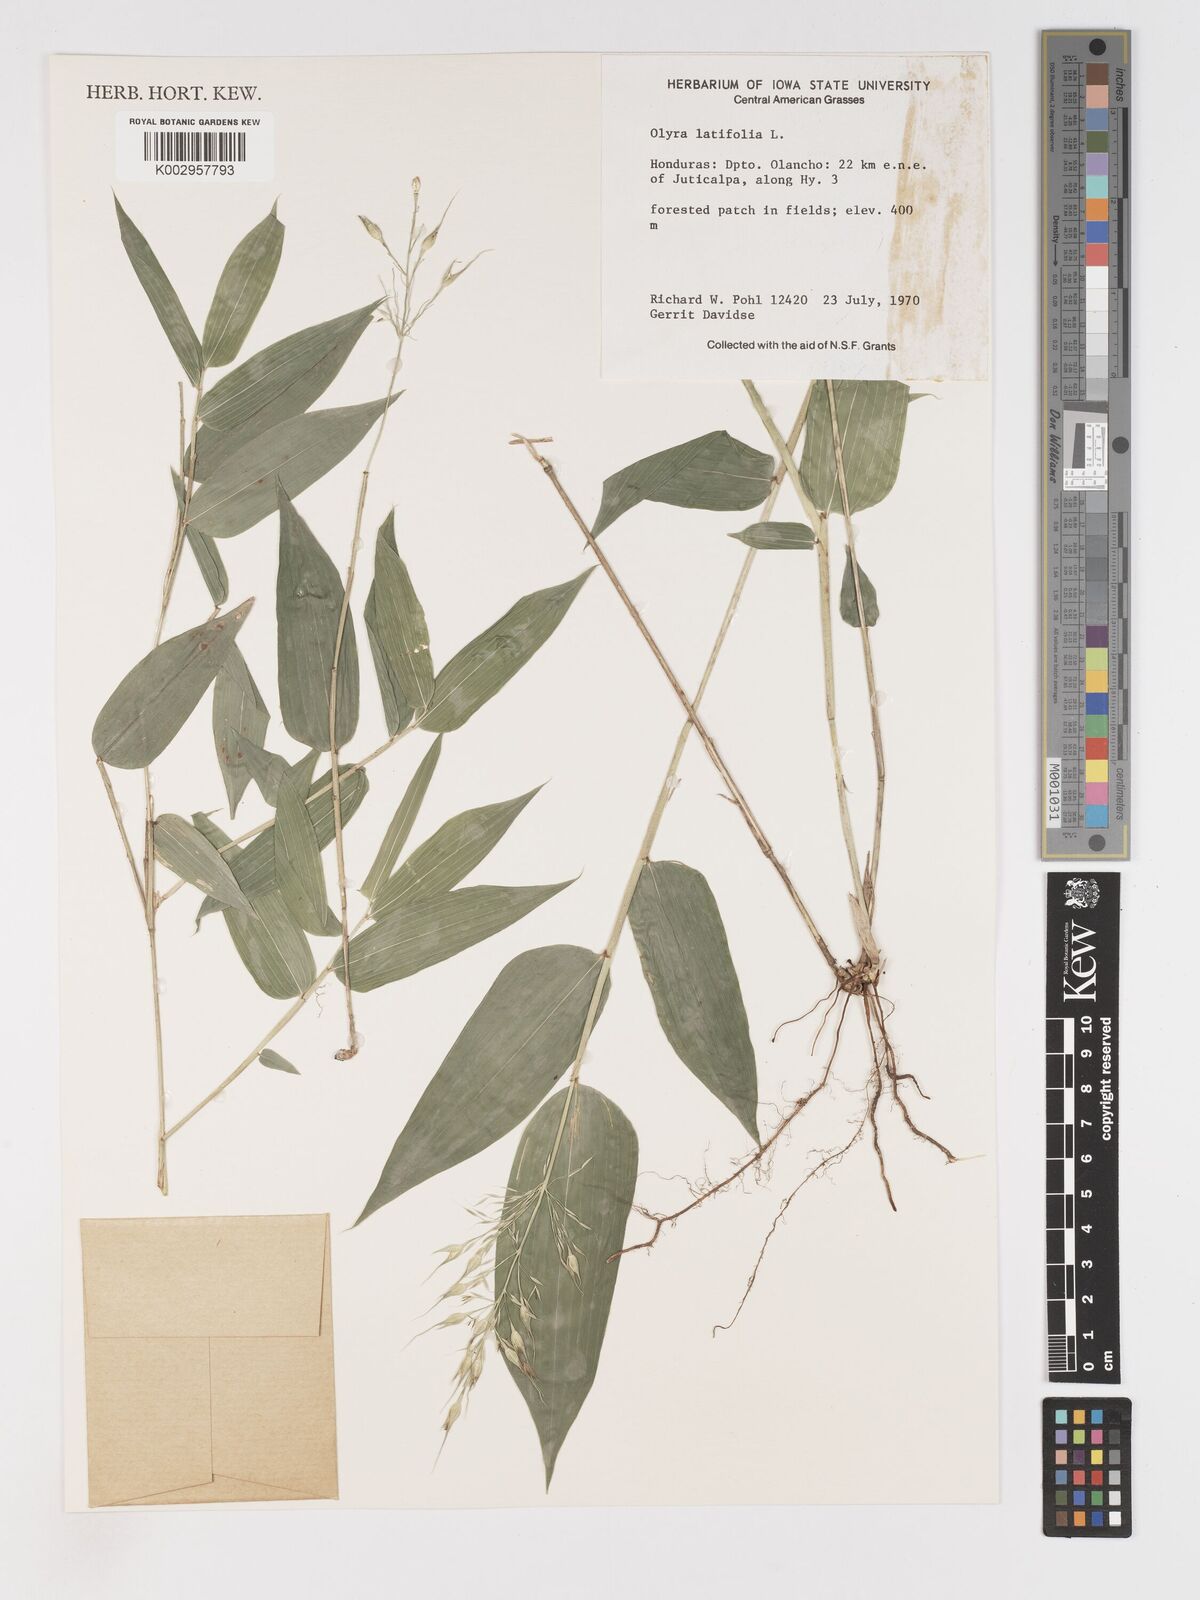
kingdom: Plantae
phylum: Tracheophyta
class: Liliopsida
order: Poales
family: Poaceae
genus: Olyra
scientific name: Olyra latifolia
